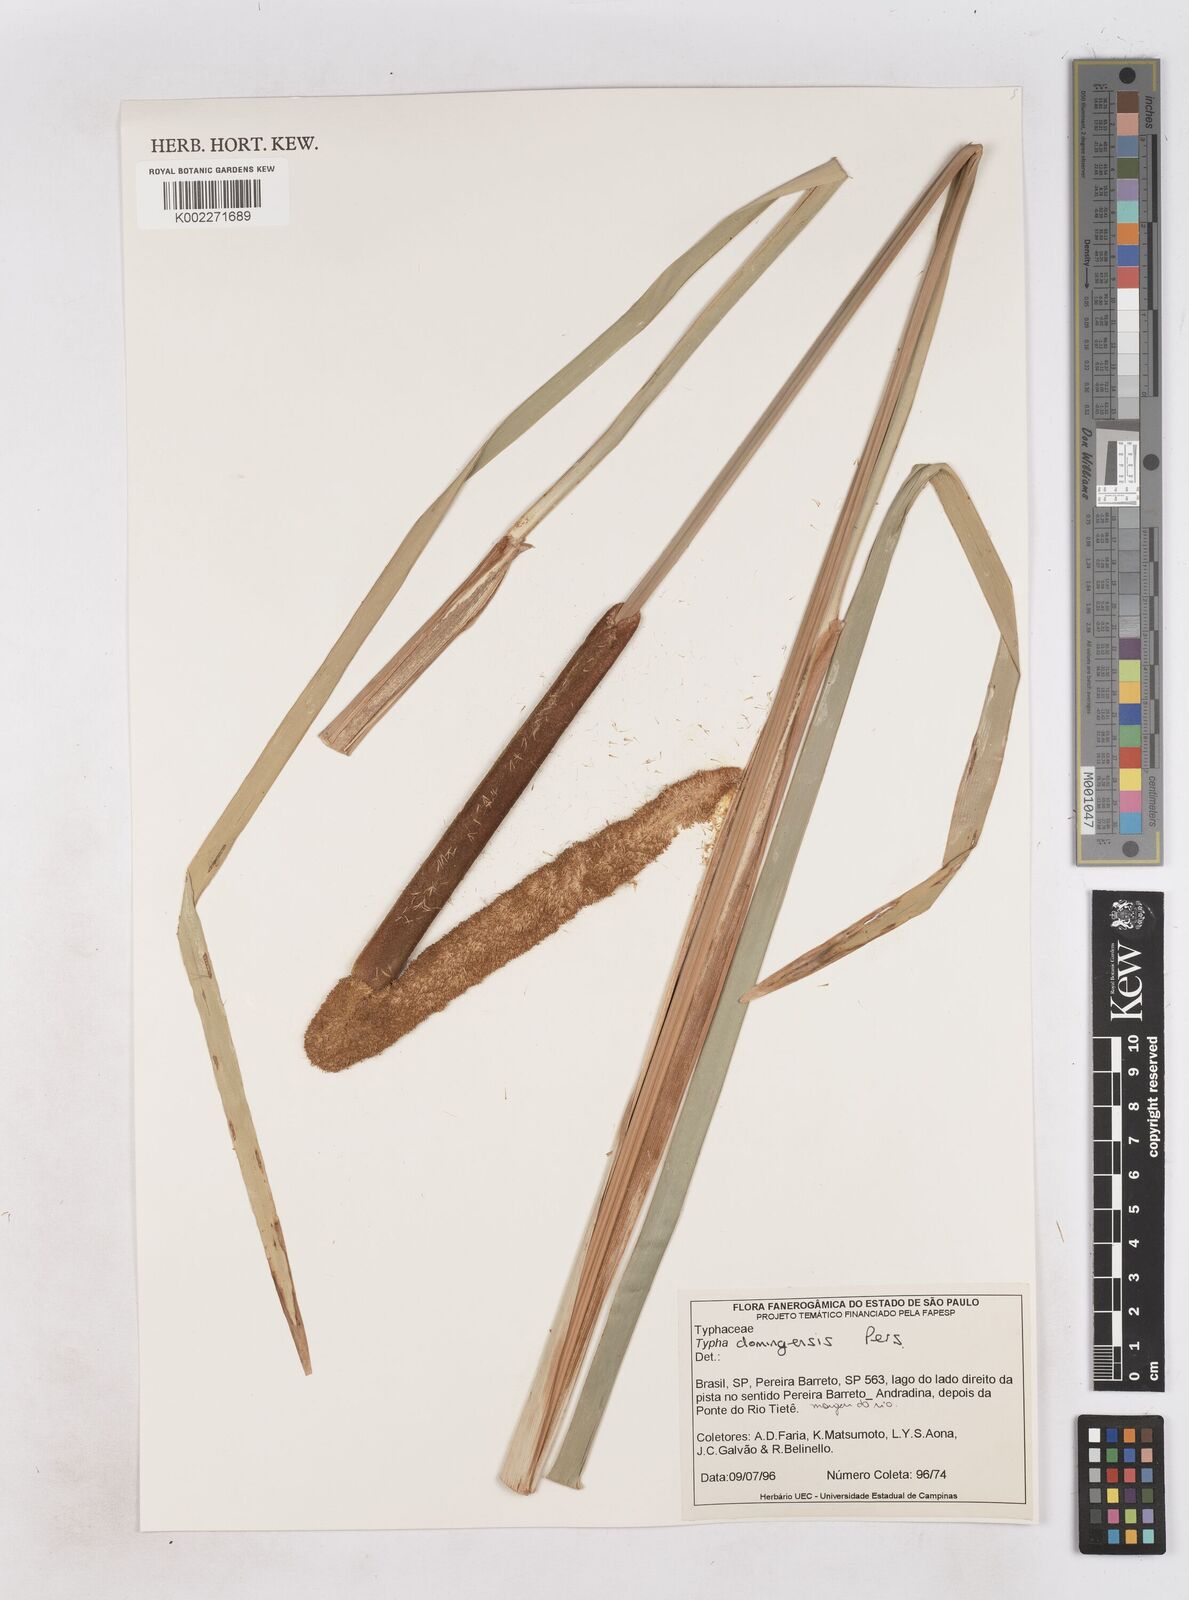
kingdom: Plantae
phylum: Tracheophyta
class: Liliopsida
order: Poales
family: Typhaceae
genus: Typha
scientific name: Typha domingensis
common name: Southern cattail
